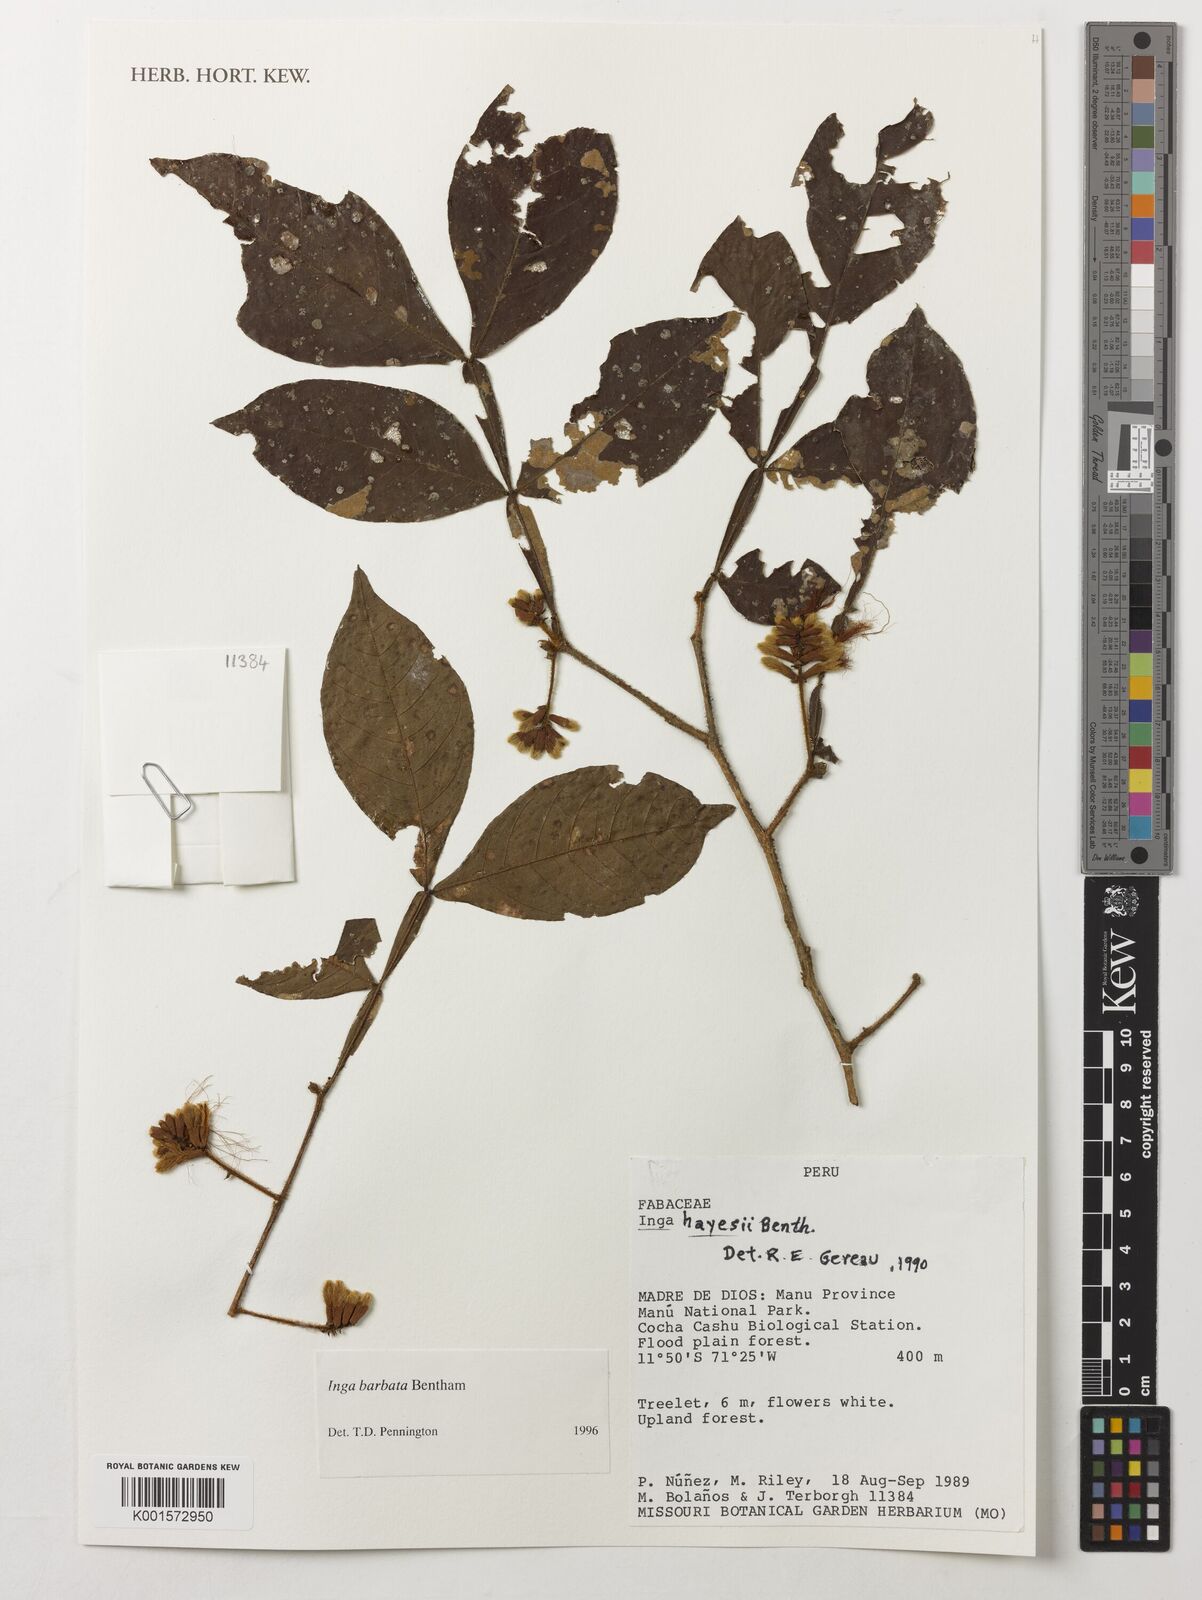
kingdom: Plantae
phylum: Tracheophyta
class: Magnoliopsida
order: Fabales
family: Fabaceae
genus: Inga
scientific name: Inga barbata
